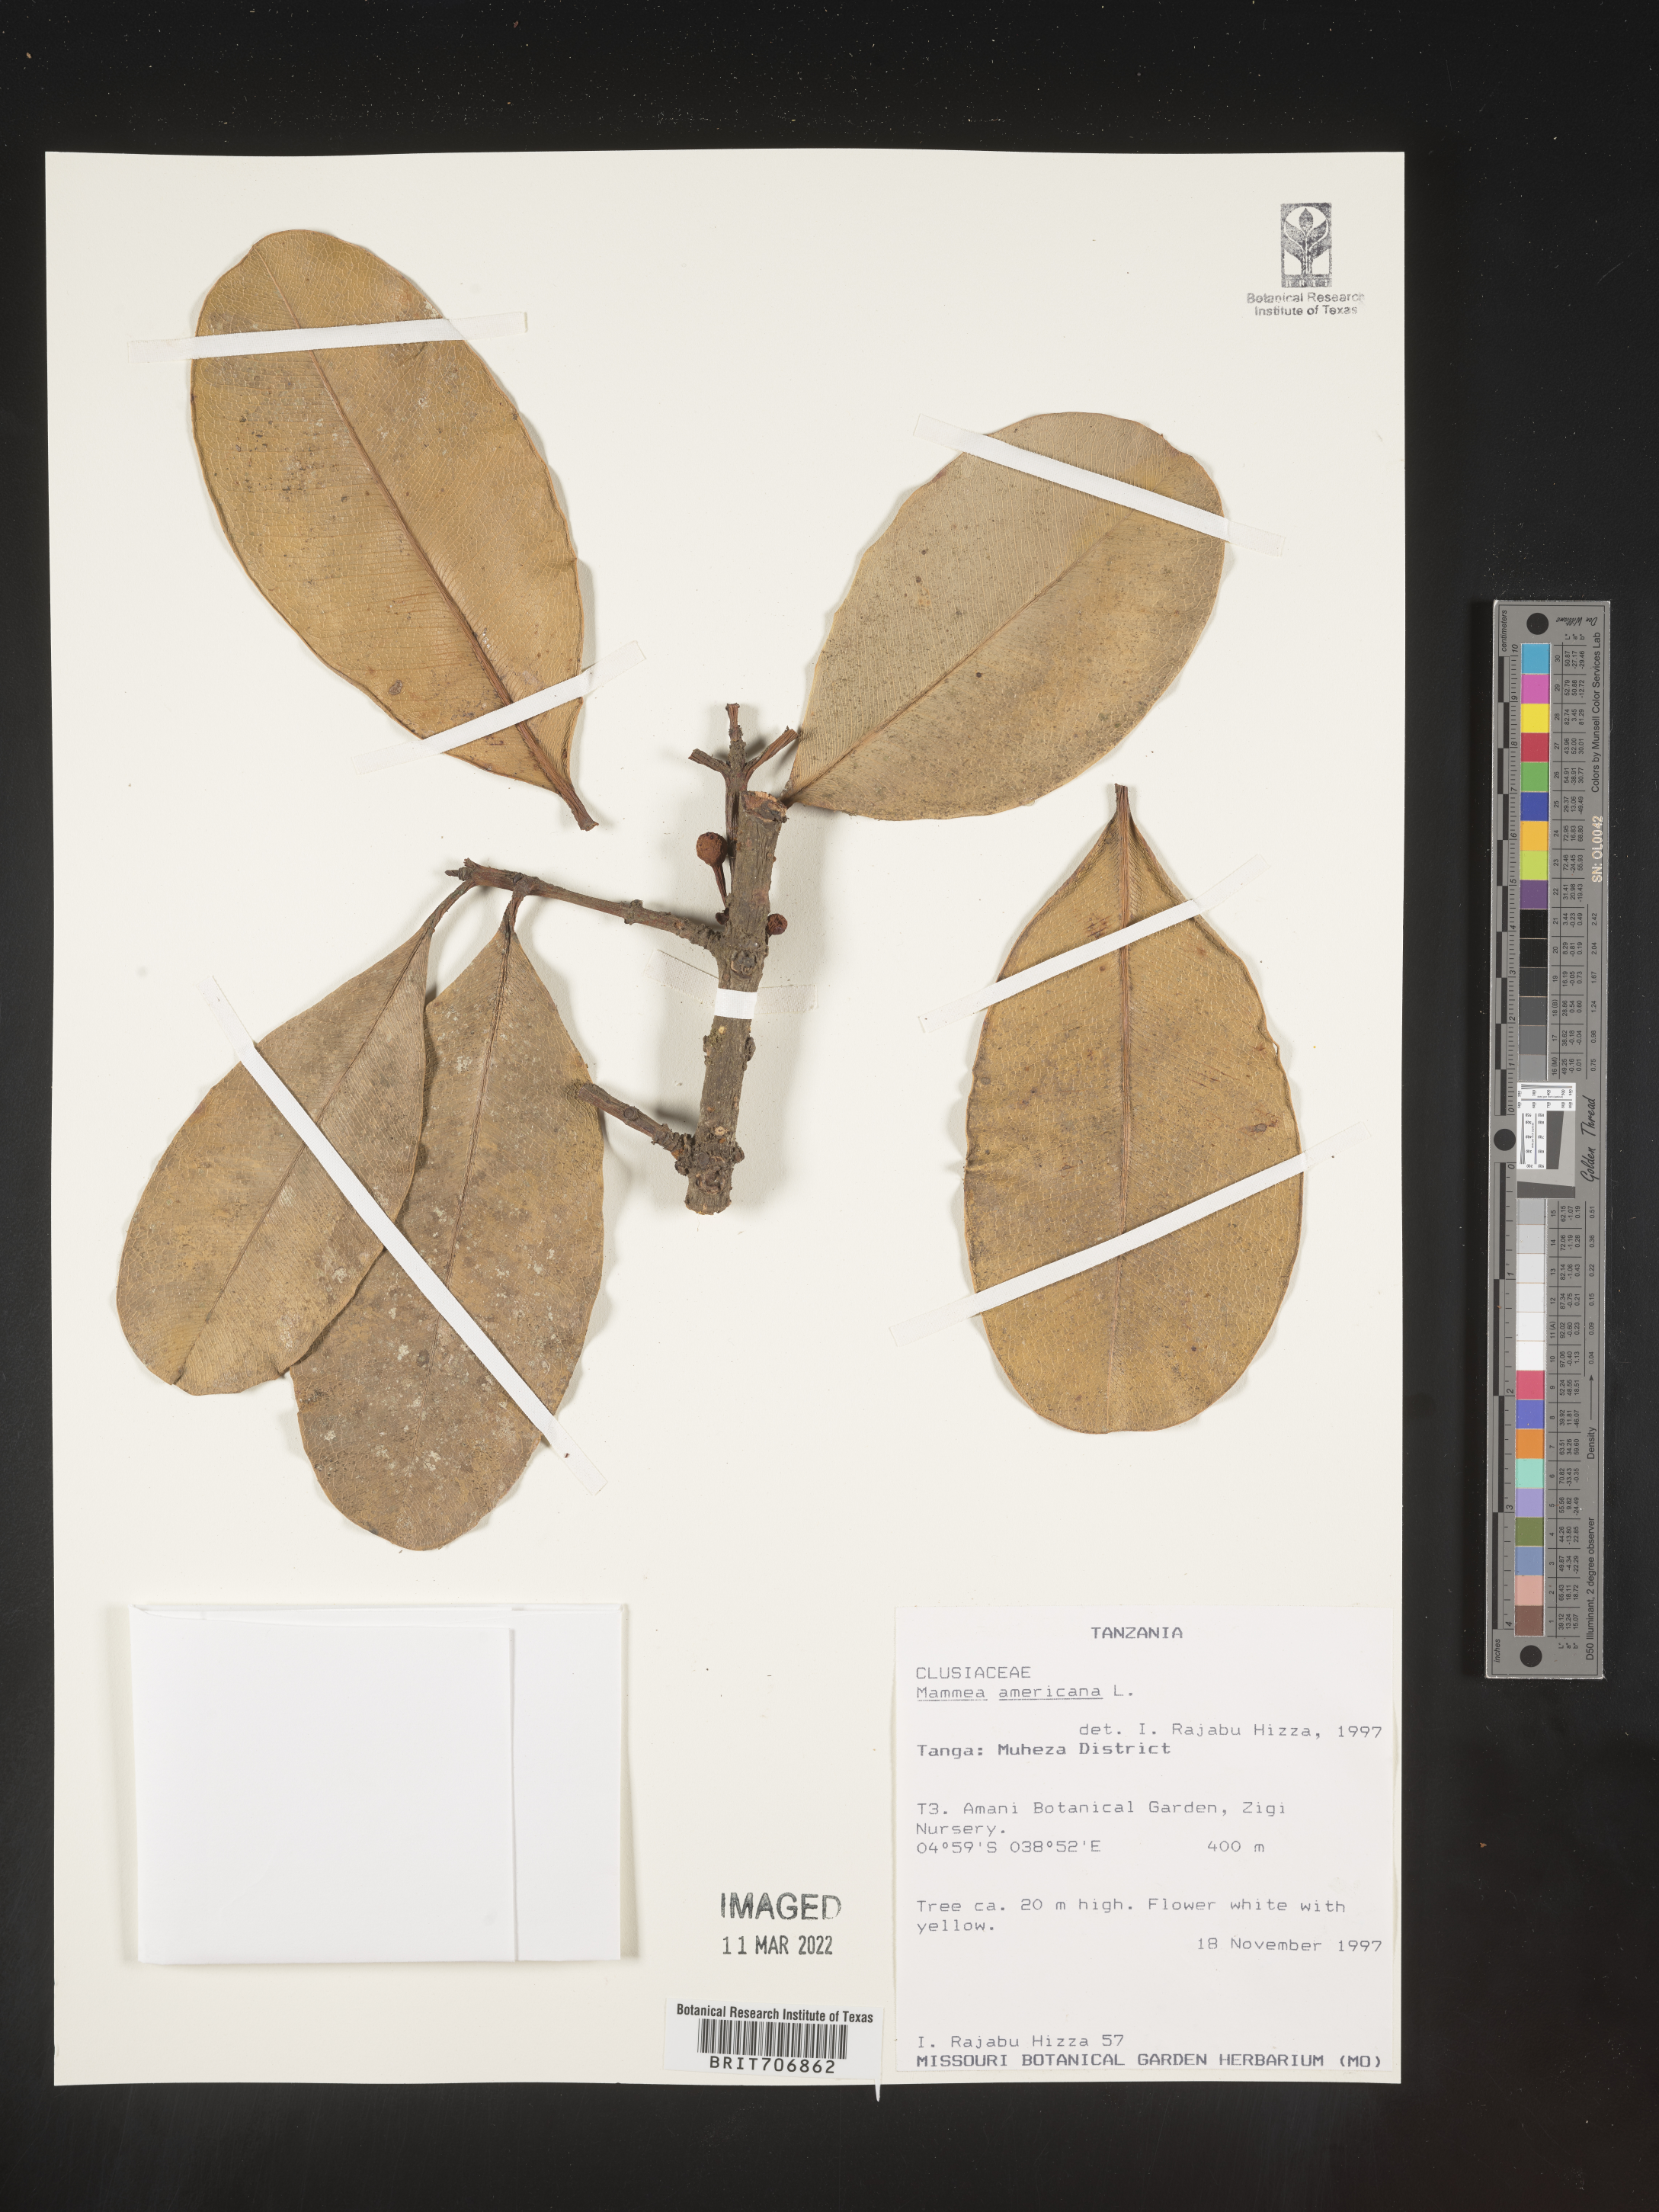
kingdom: Plantae
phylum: Tracheophyta
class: Magnoliopsida
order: Malpighiales
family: Calophyllaceae
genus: Mammea
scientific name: Mammea
